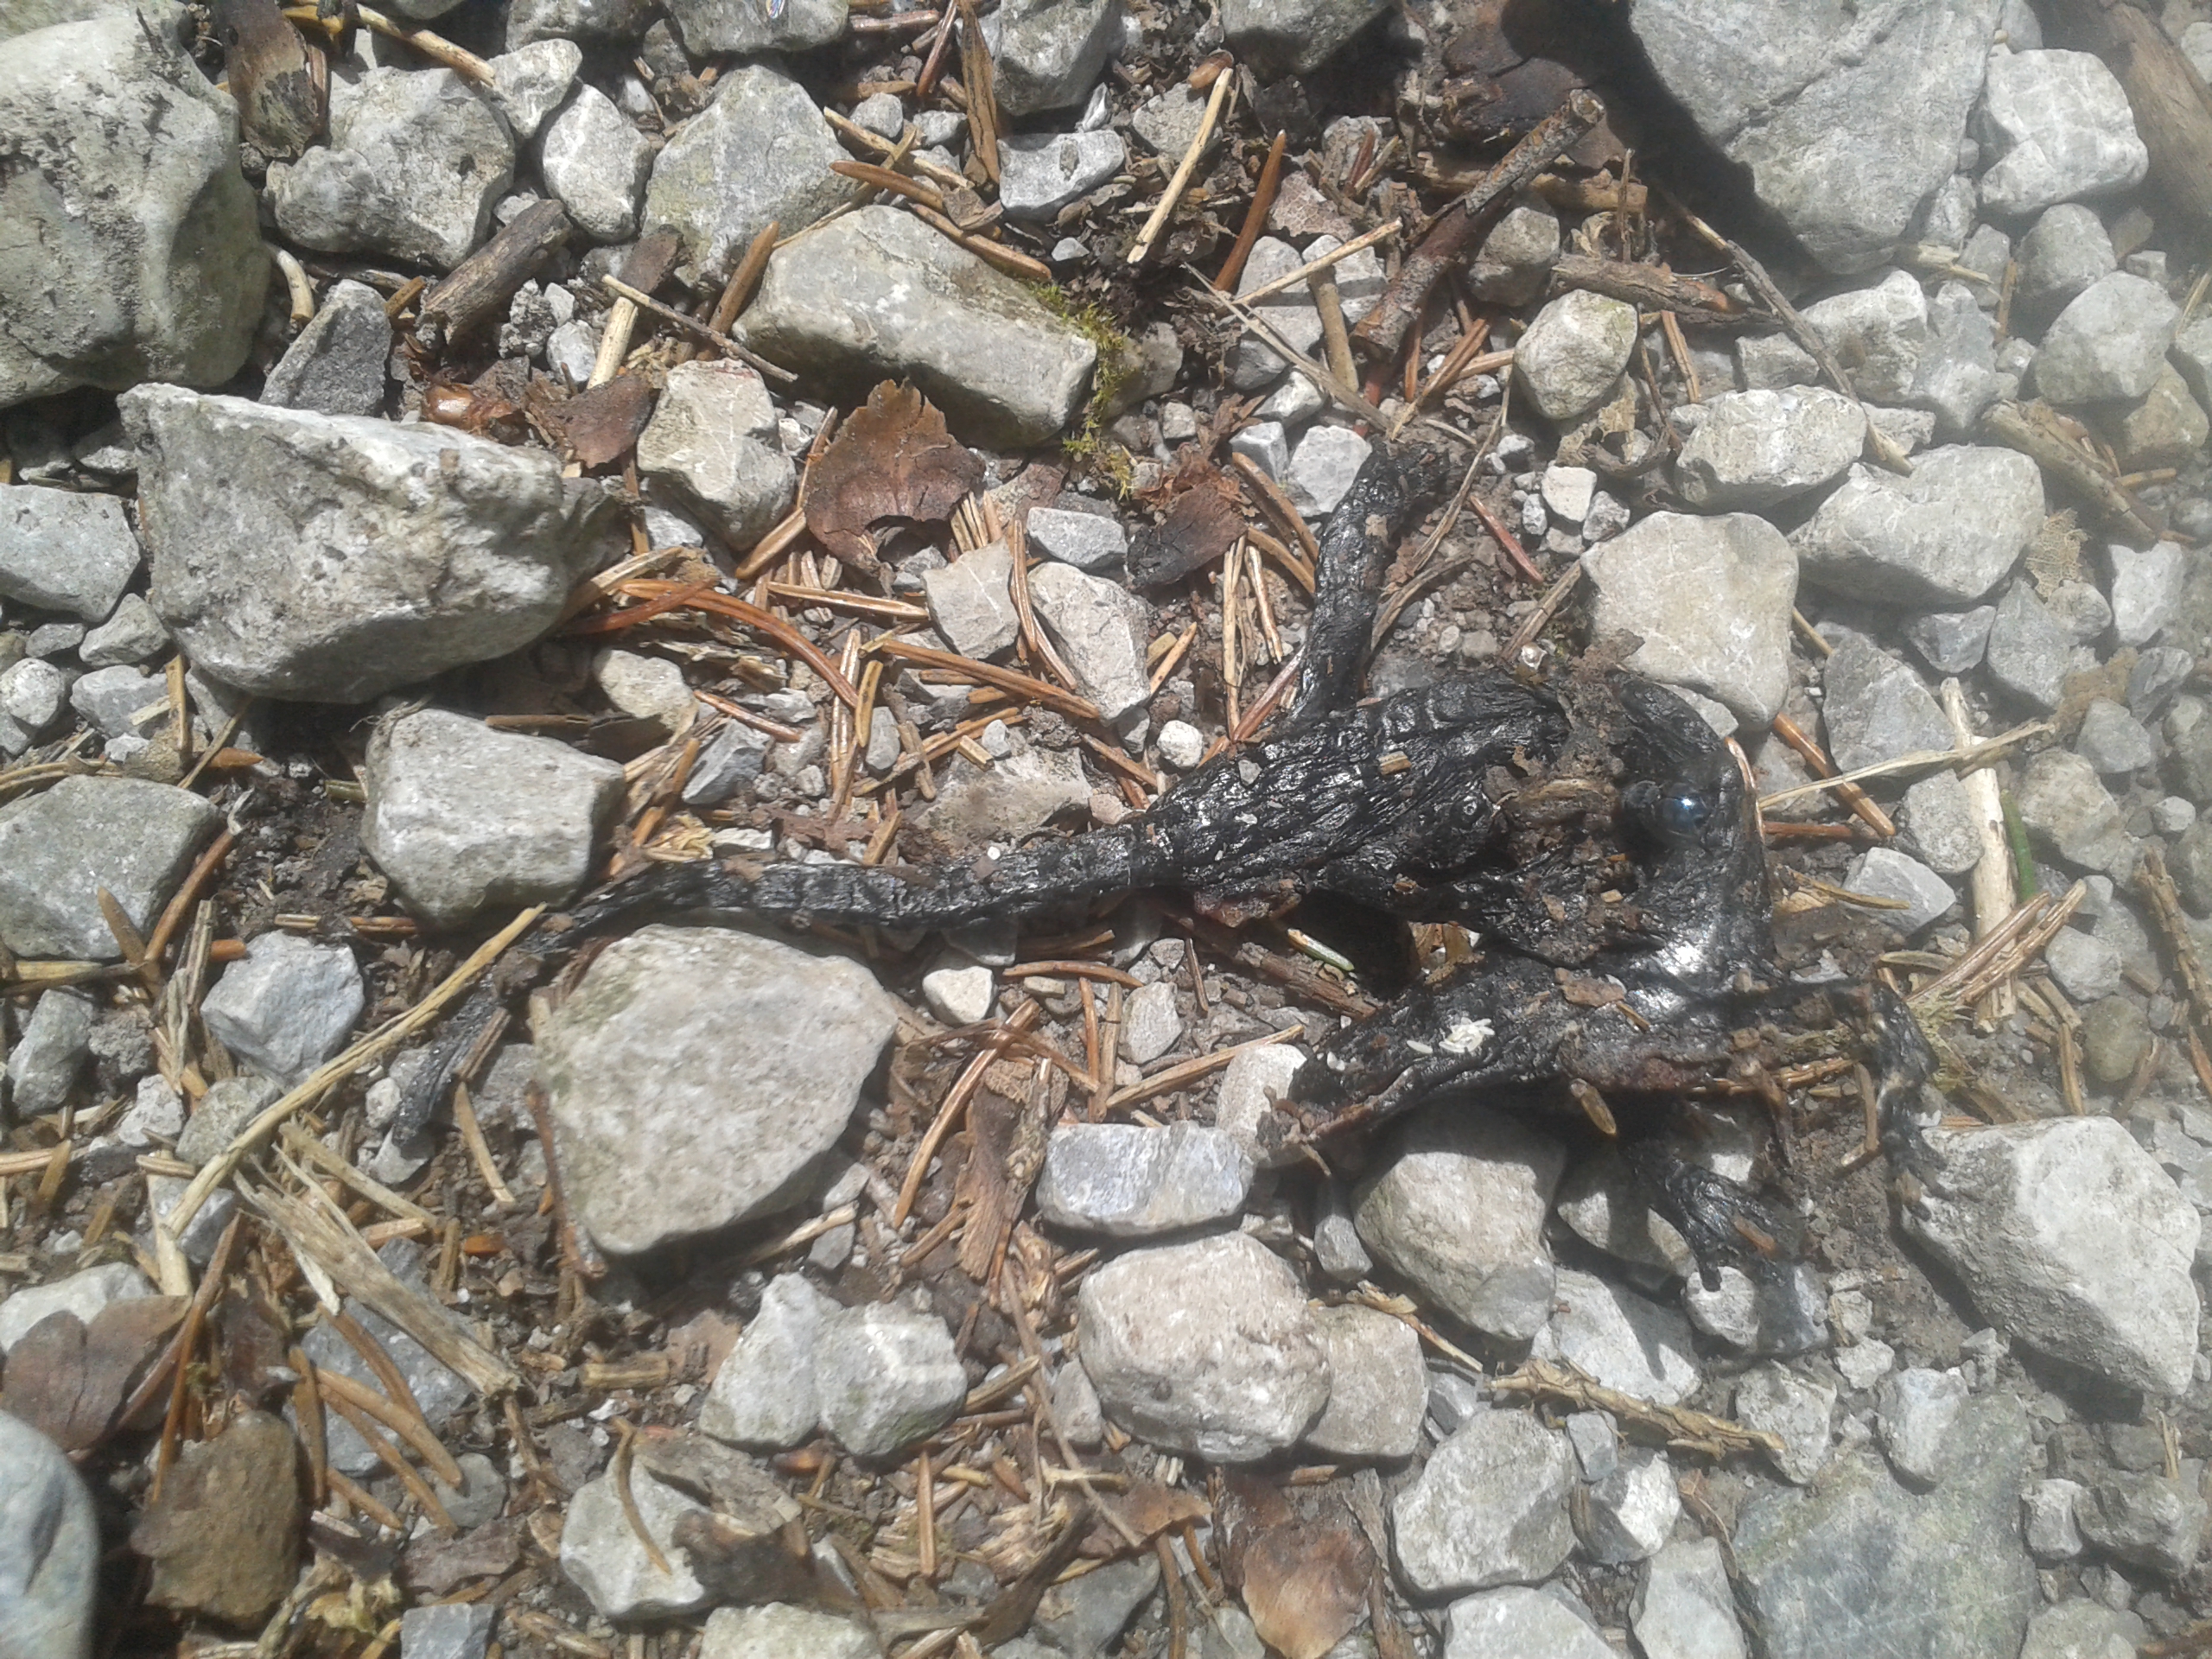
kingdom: Animalia
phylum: Chordata
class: Amphibia
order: Caudata
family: Salamandridae
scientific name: Salamandridae
